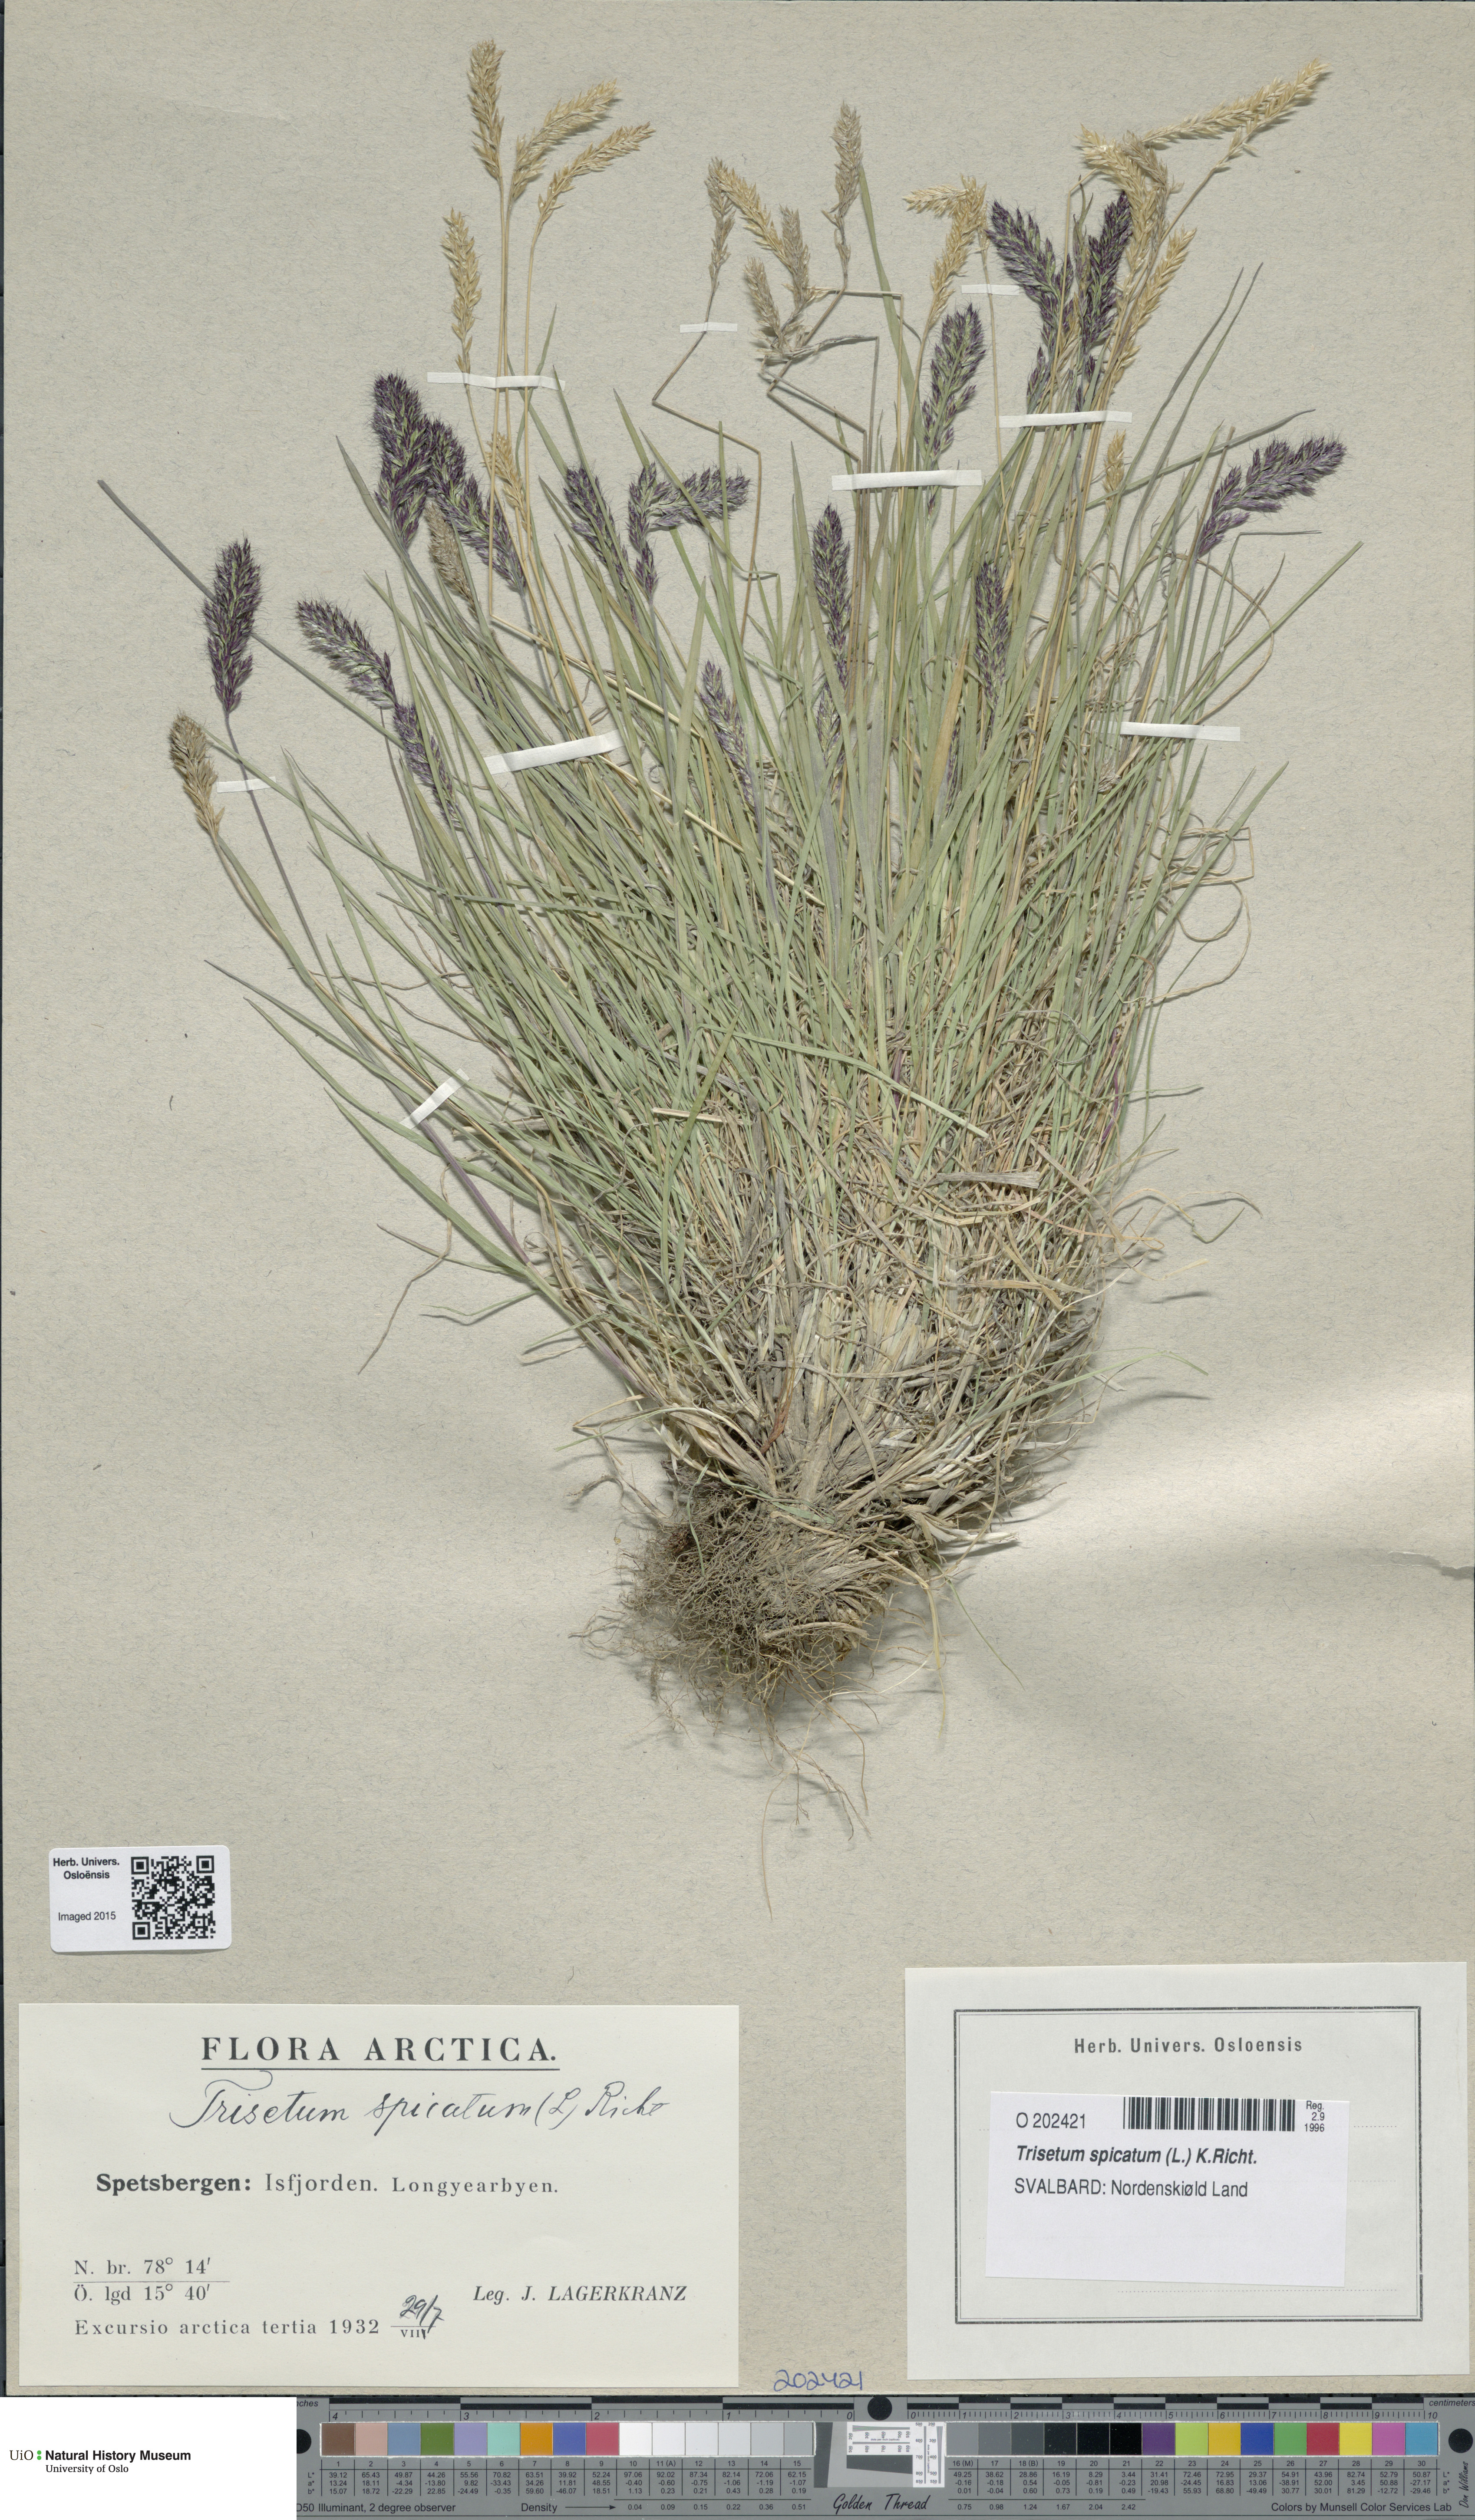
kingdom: Plantae
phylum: Tracheophyta
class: Liliopsida
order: Poales
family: Poaceae
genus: Koeleria
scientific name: Koeleria spicata
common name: Mountain trisetum
